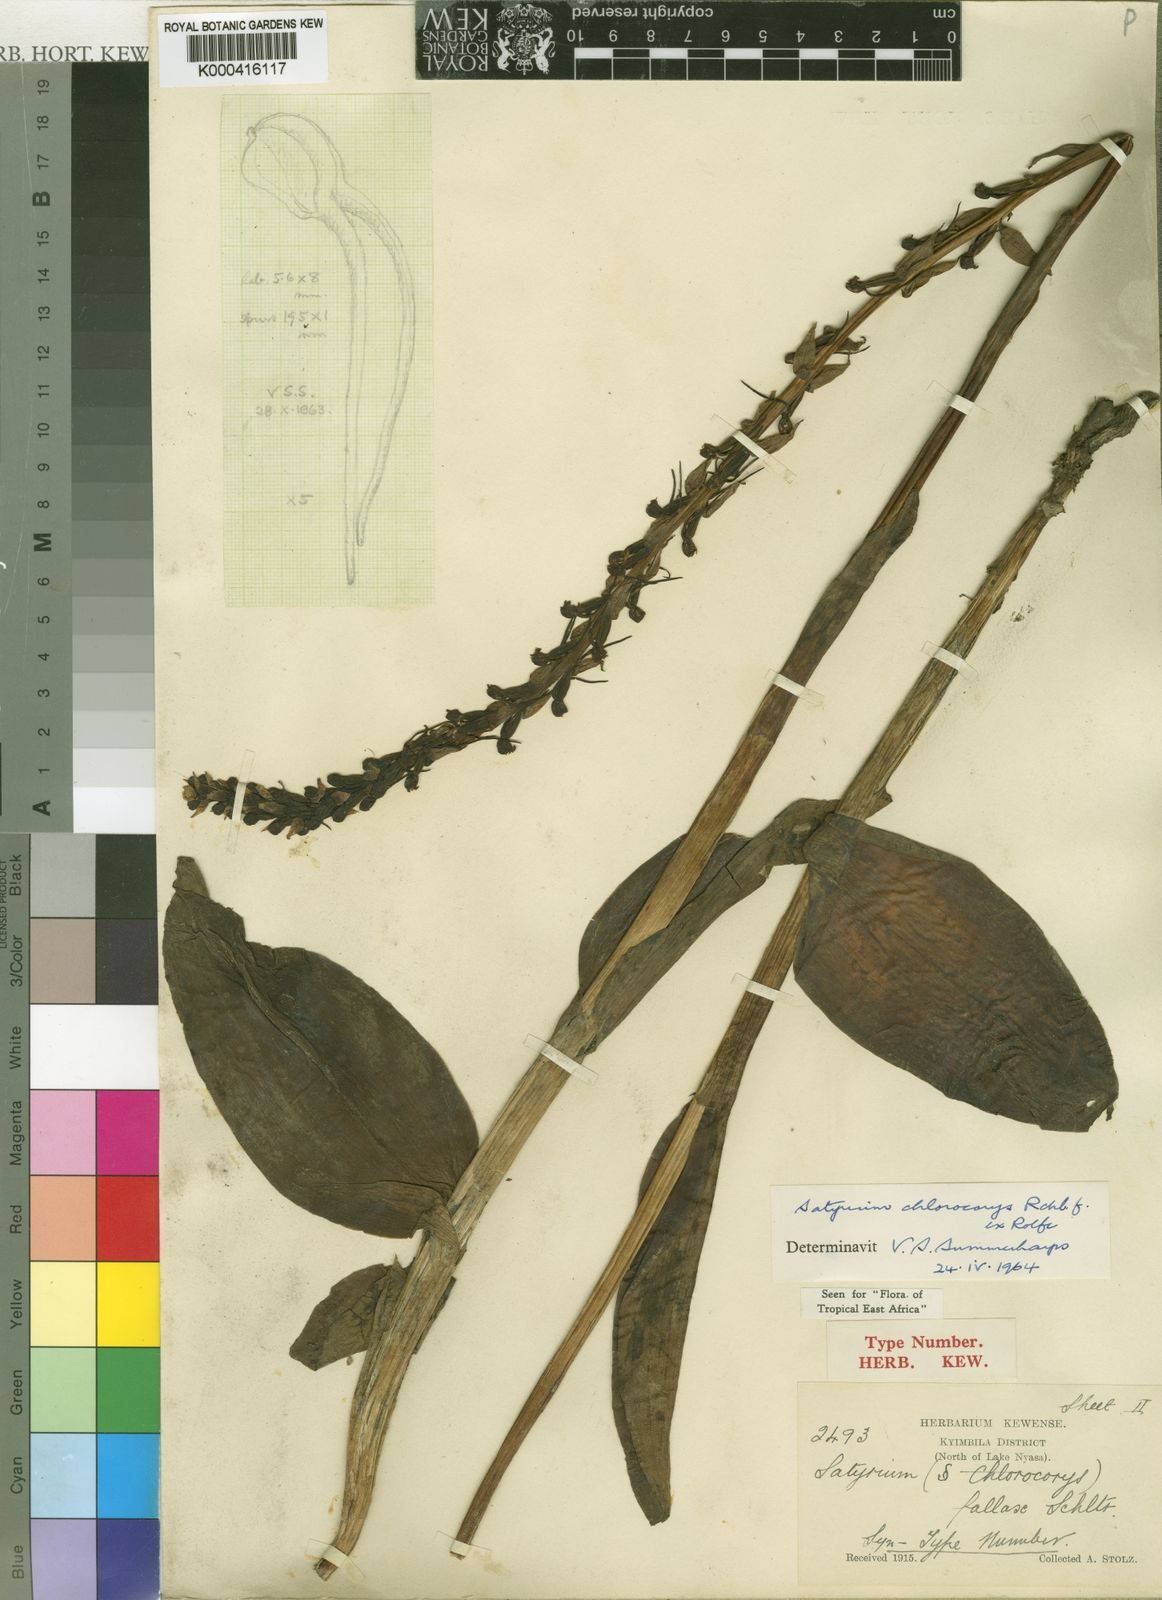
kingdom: Plantae
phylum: Tracheophyta
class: Liliopsida
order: Asparagales
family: Orchidaceae
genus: Satyrium
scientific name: Satyrium chlorocorys
